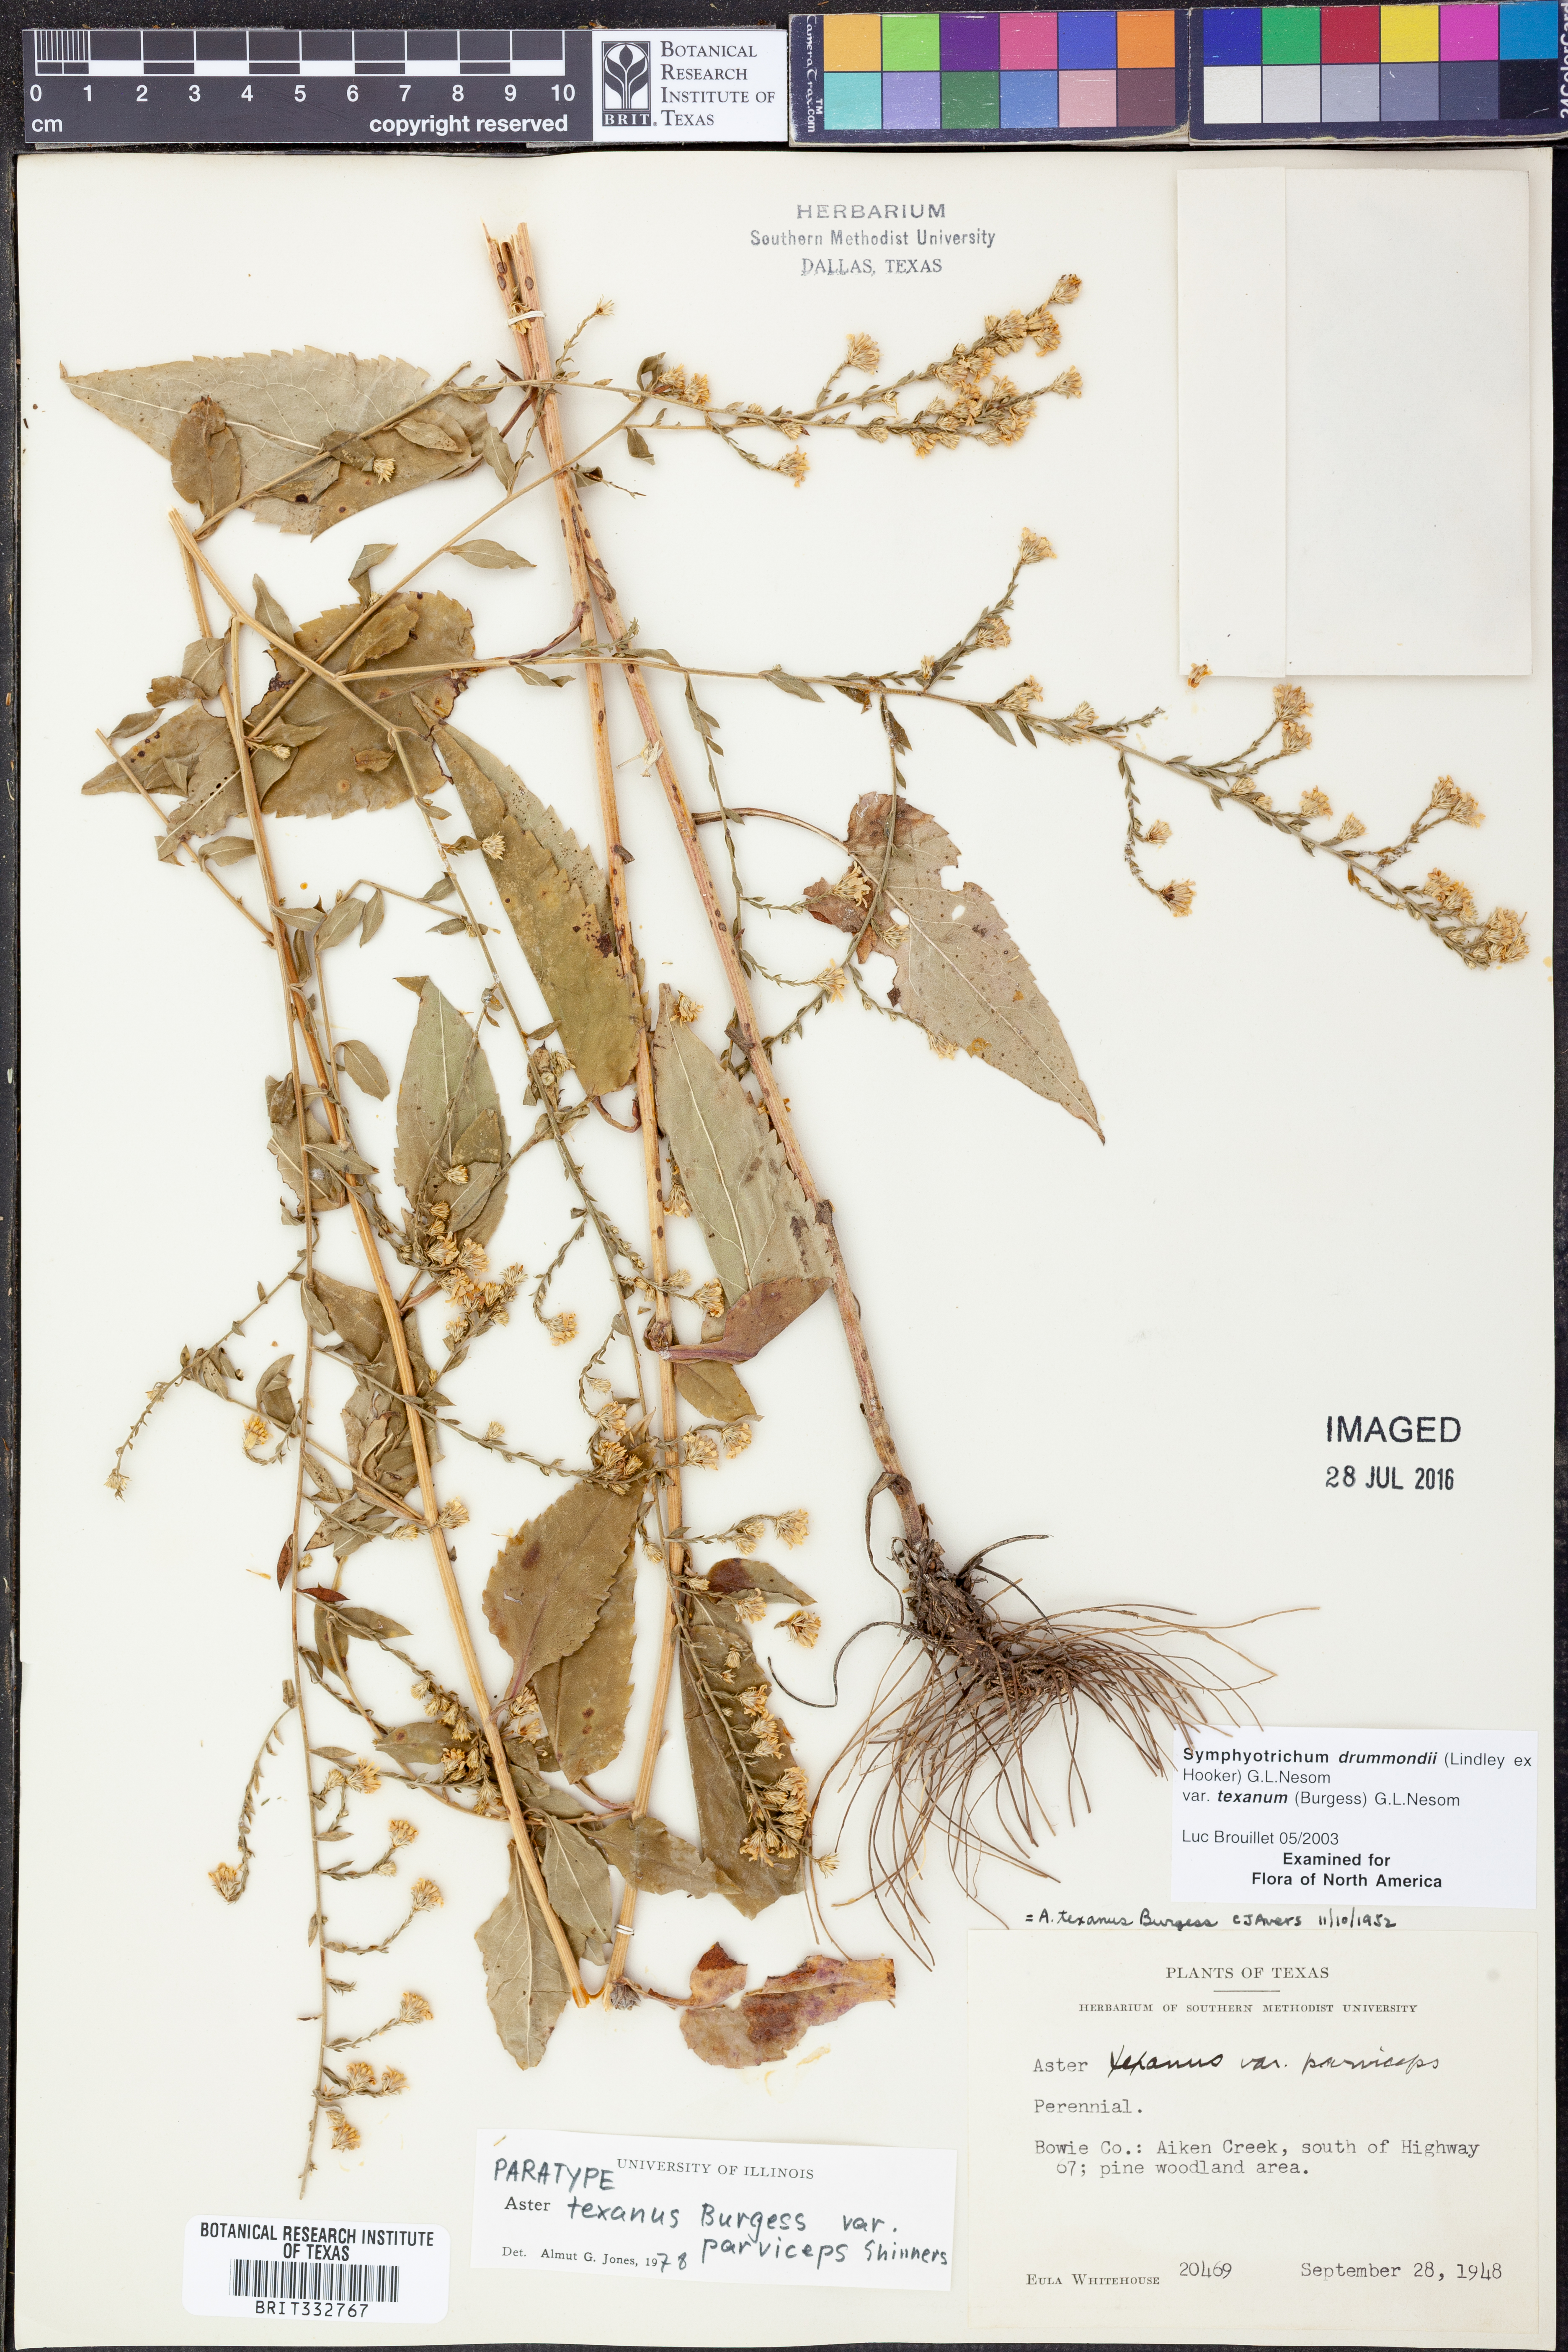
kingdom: Plantae
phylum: Tracheophyta
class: Magnoliopsida
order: Asterales
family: Asteraceae
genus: Symphyotrichum
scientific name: Symphyotrichum drummondii
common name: Drummond's aster
